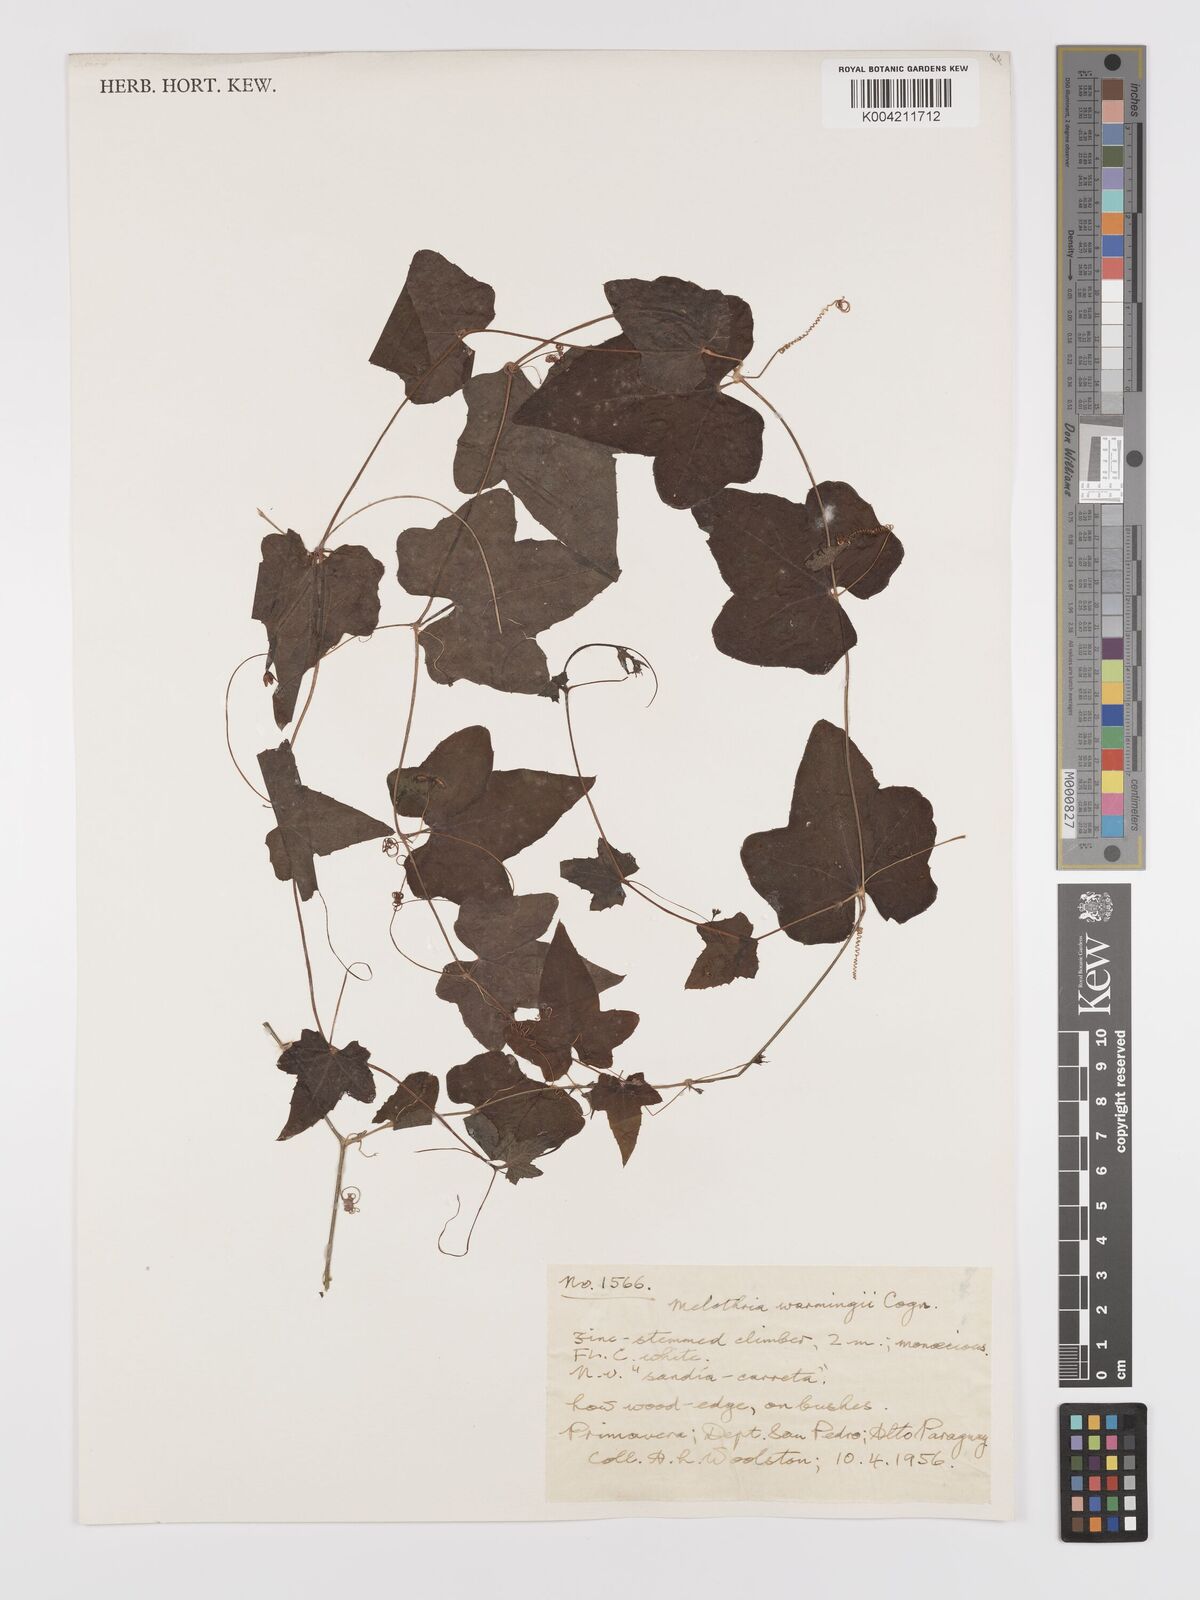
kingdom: Plantae
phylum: Tracheophyta
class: Magnoliopsida
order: Cucurbitales
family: Cucurbitaceae
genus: Melothria
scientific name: Melothria warmingii
